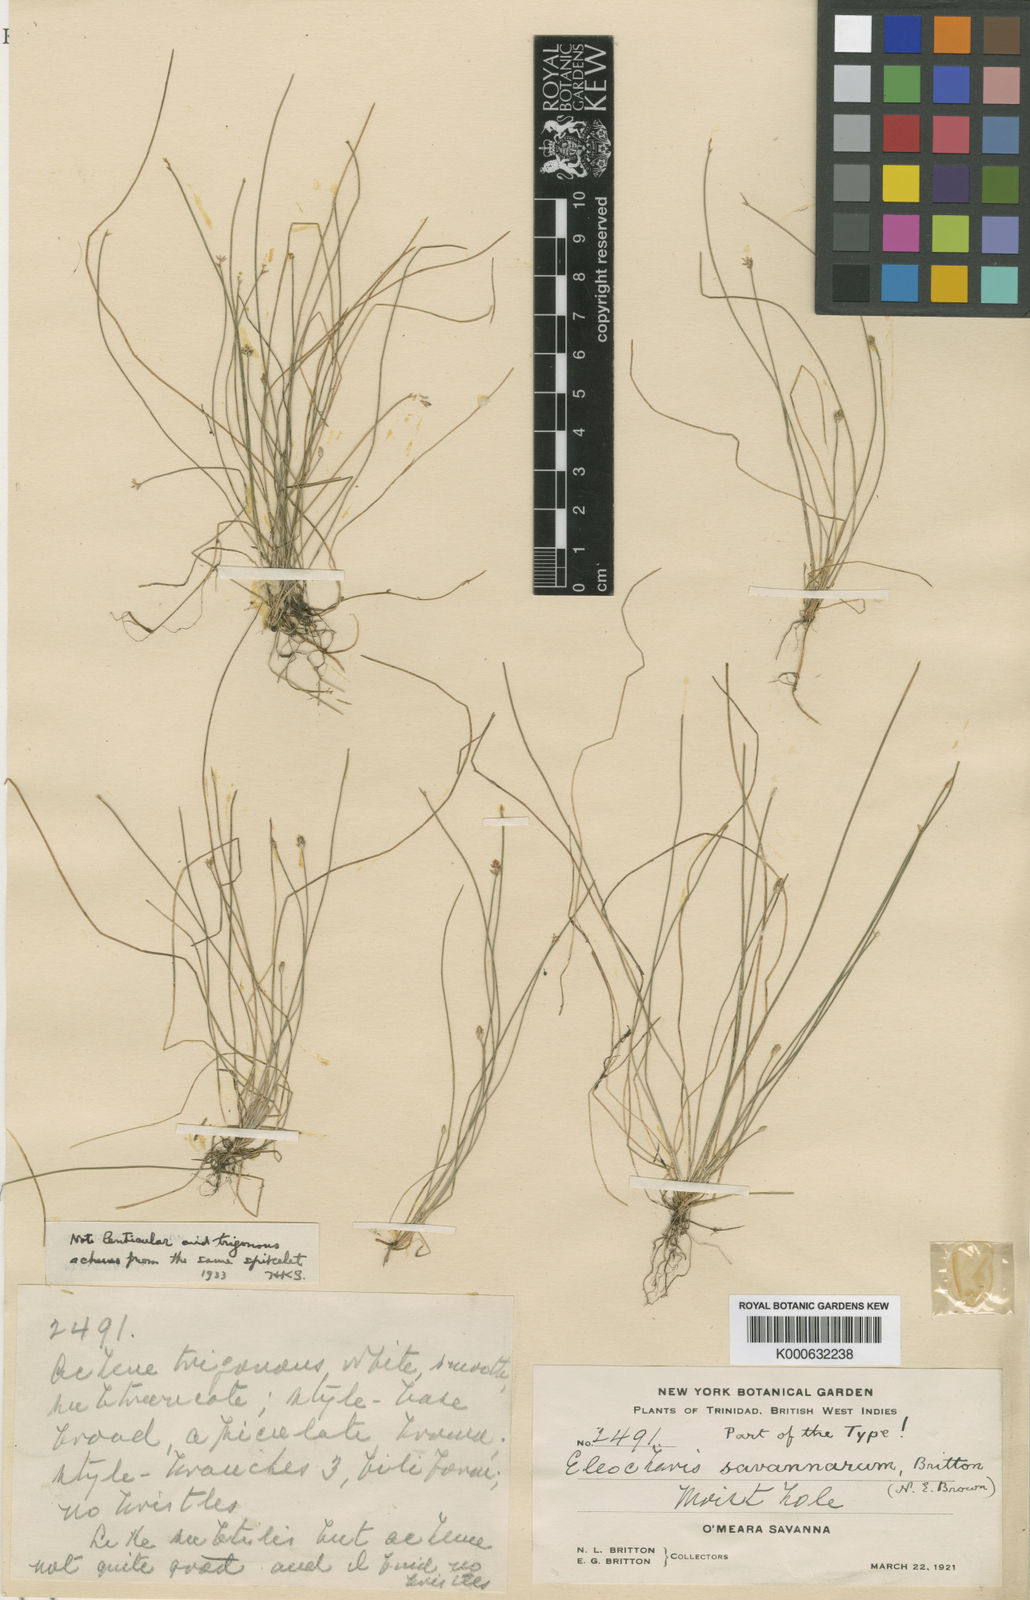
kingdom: Plantae
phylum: Tracheophyta
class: Liliopsida
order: Poales
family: Cyperaceae
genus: Eleocharis
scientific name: Eleocharis minima
